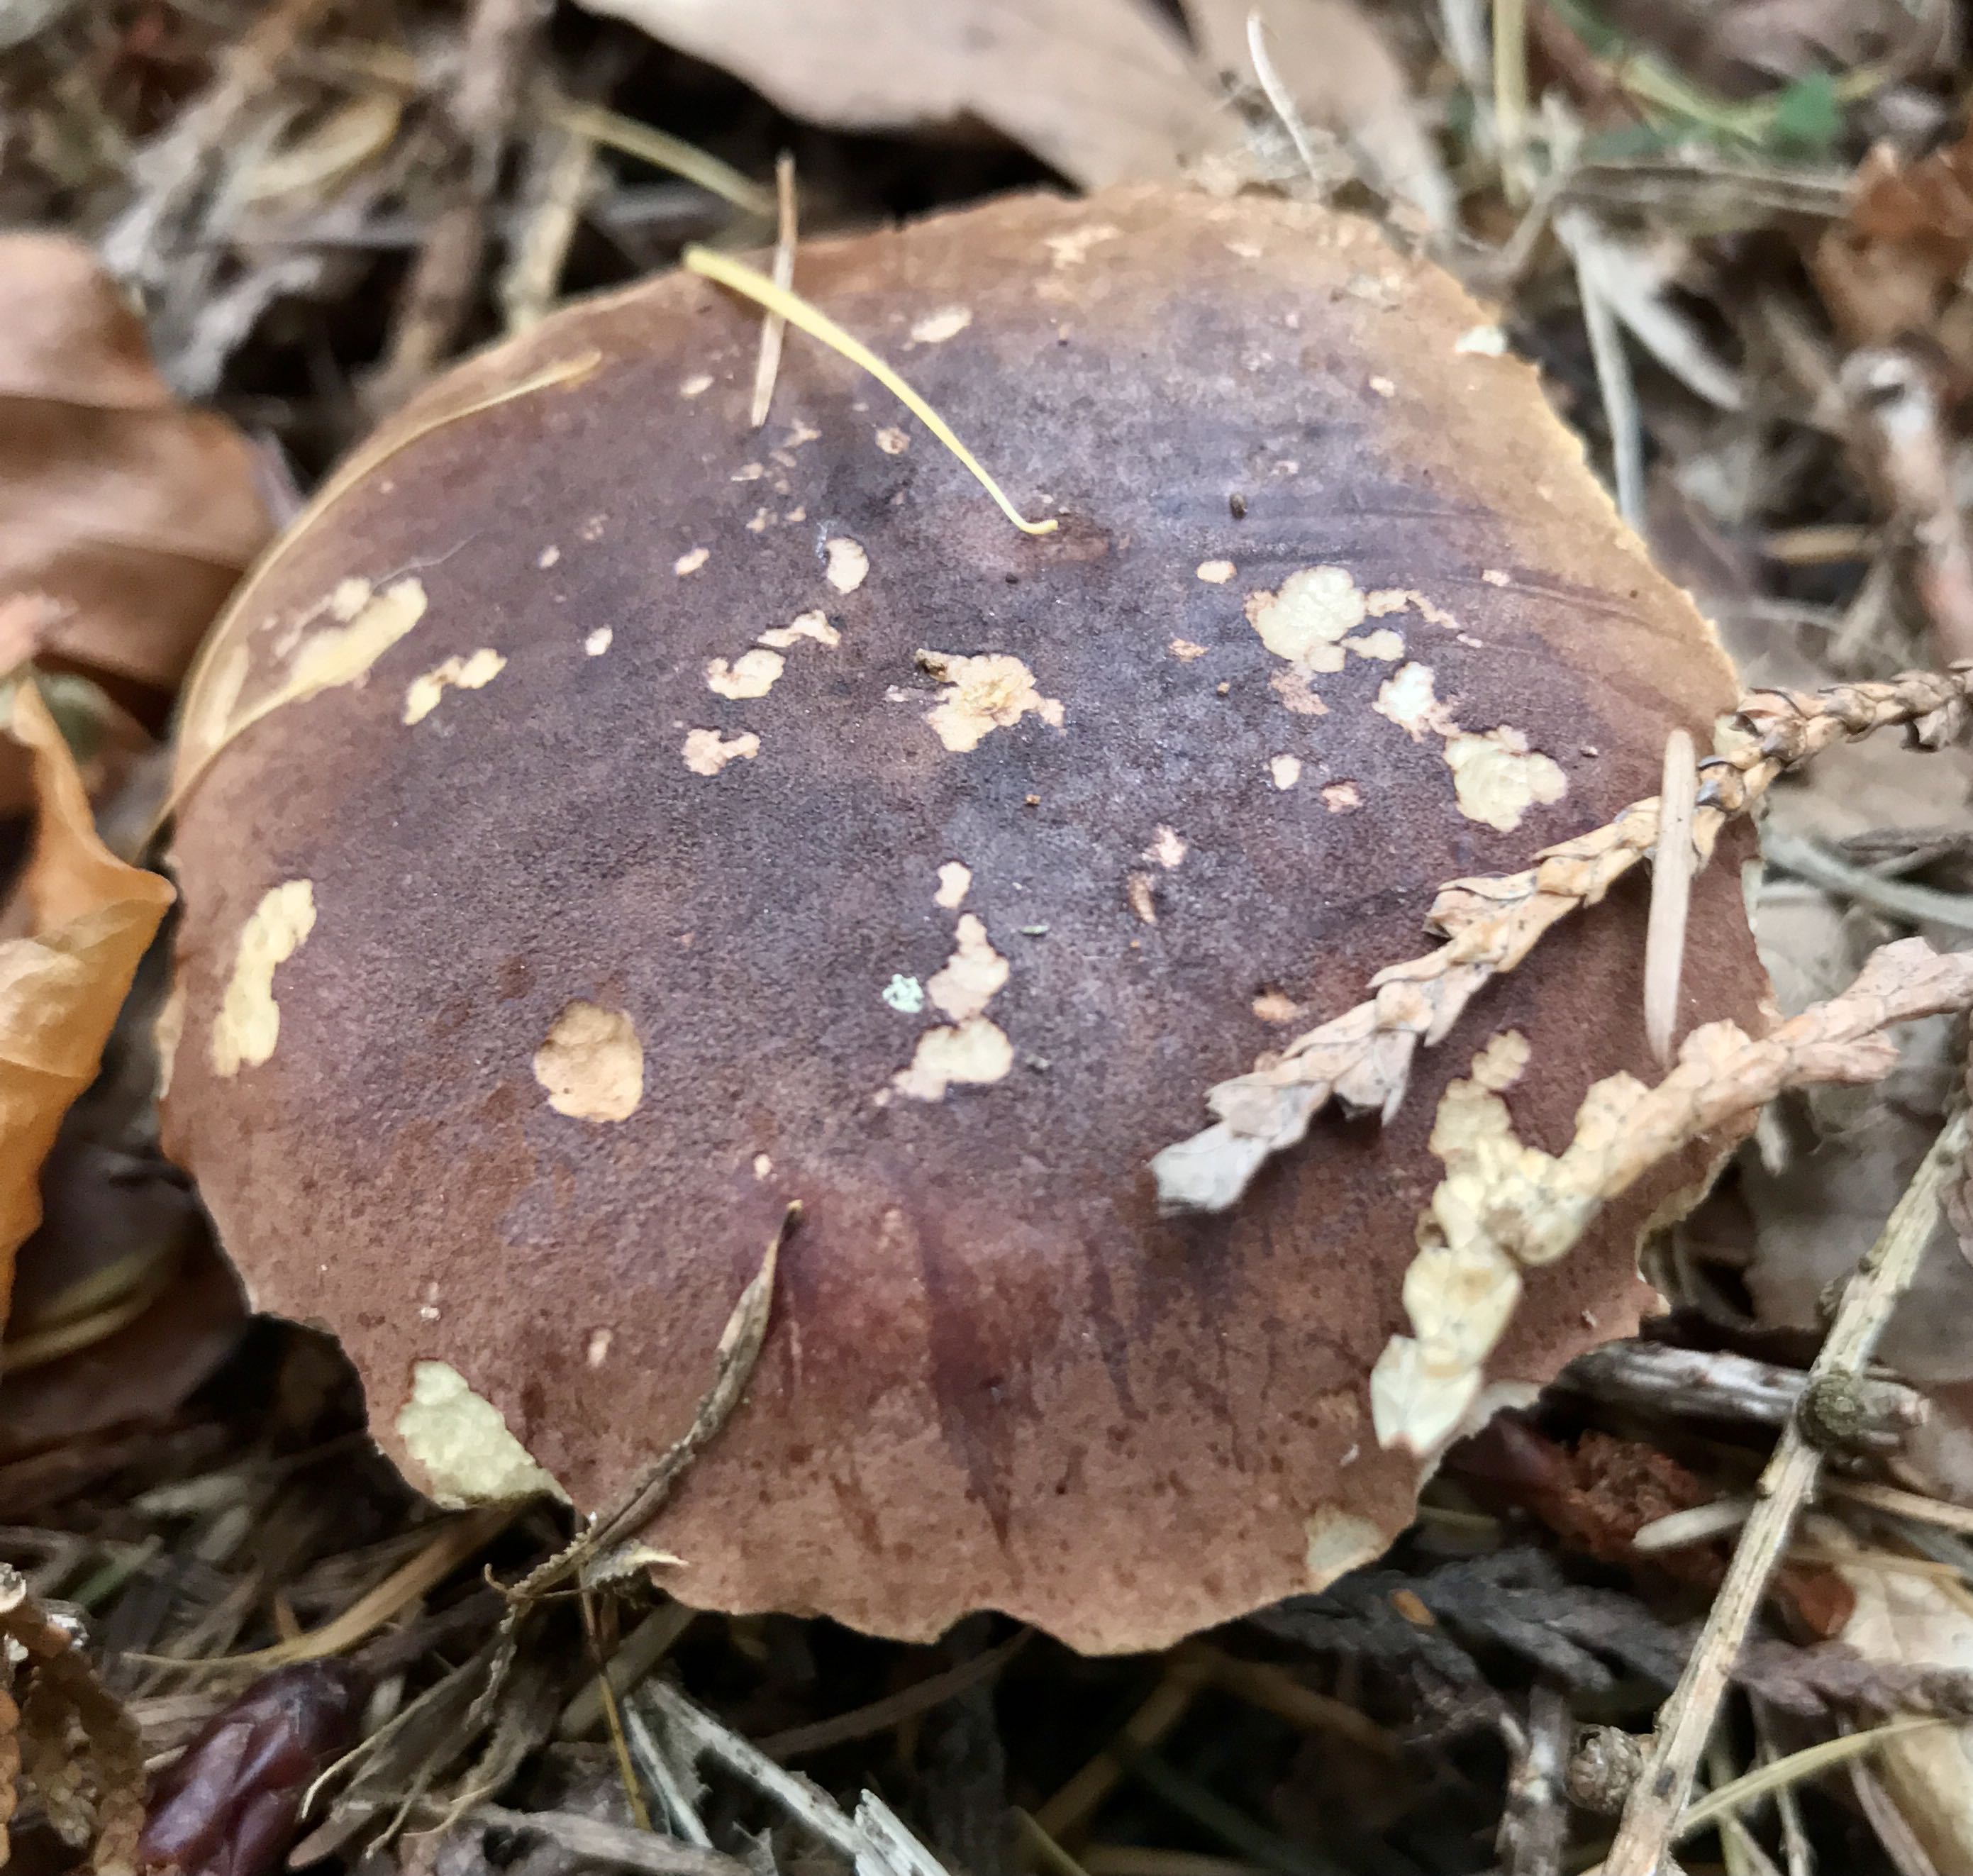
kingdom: Fungi
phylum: Basidiomycota
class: Agaricomycetes
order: Boletales
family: Boletaceae
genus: Imleria
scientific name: Imleria badia
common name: brunstokket rørhat
